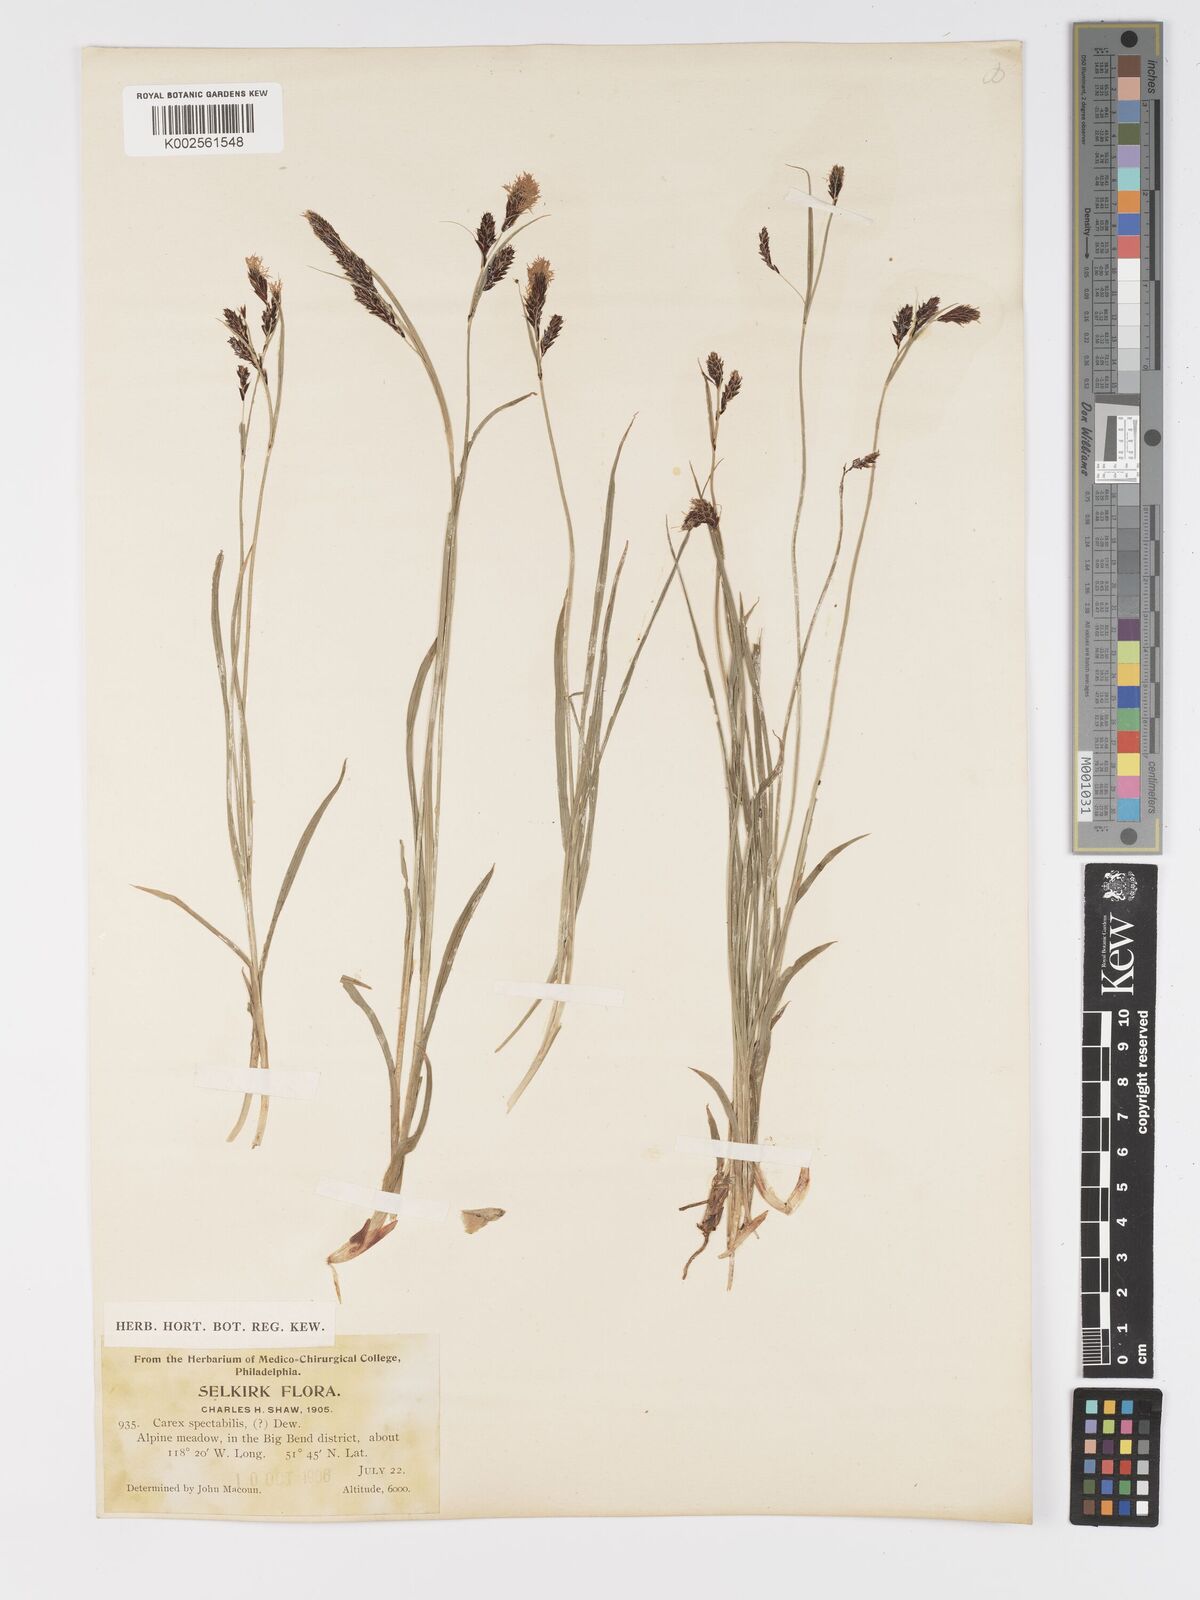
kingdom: Plantae
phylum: Tracheophyta
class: Liliopsida
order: Poales
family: Cyperaceae
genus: Carex
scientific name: Carex spectabilis
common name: Northwestern showy sedge
